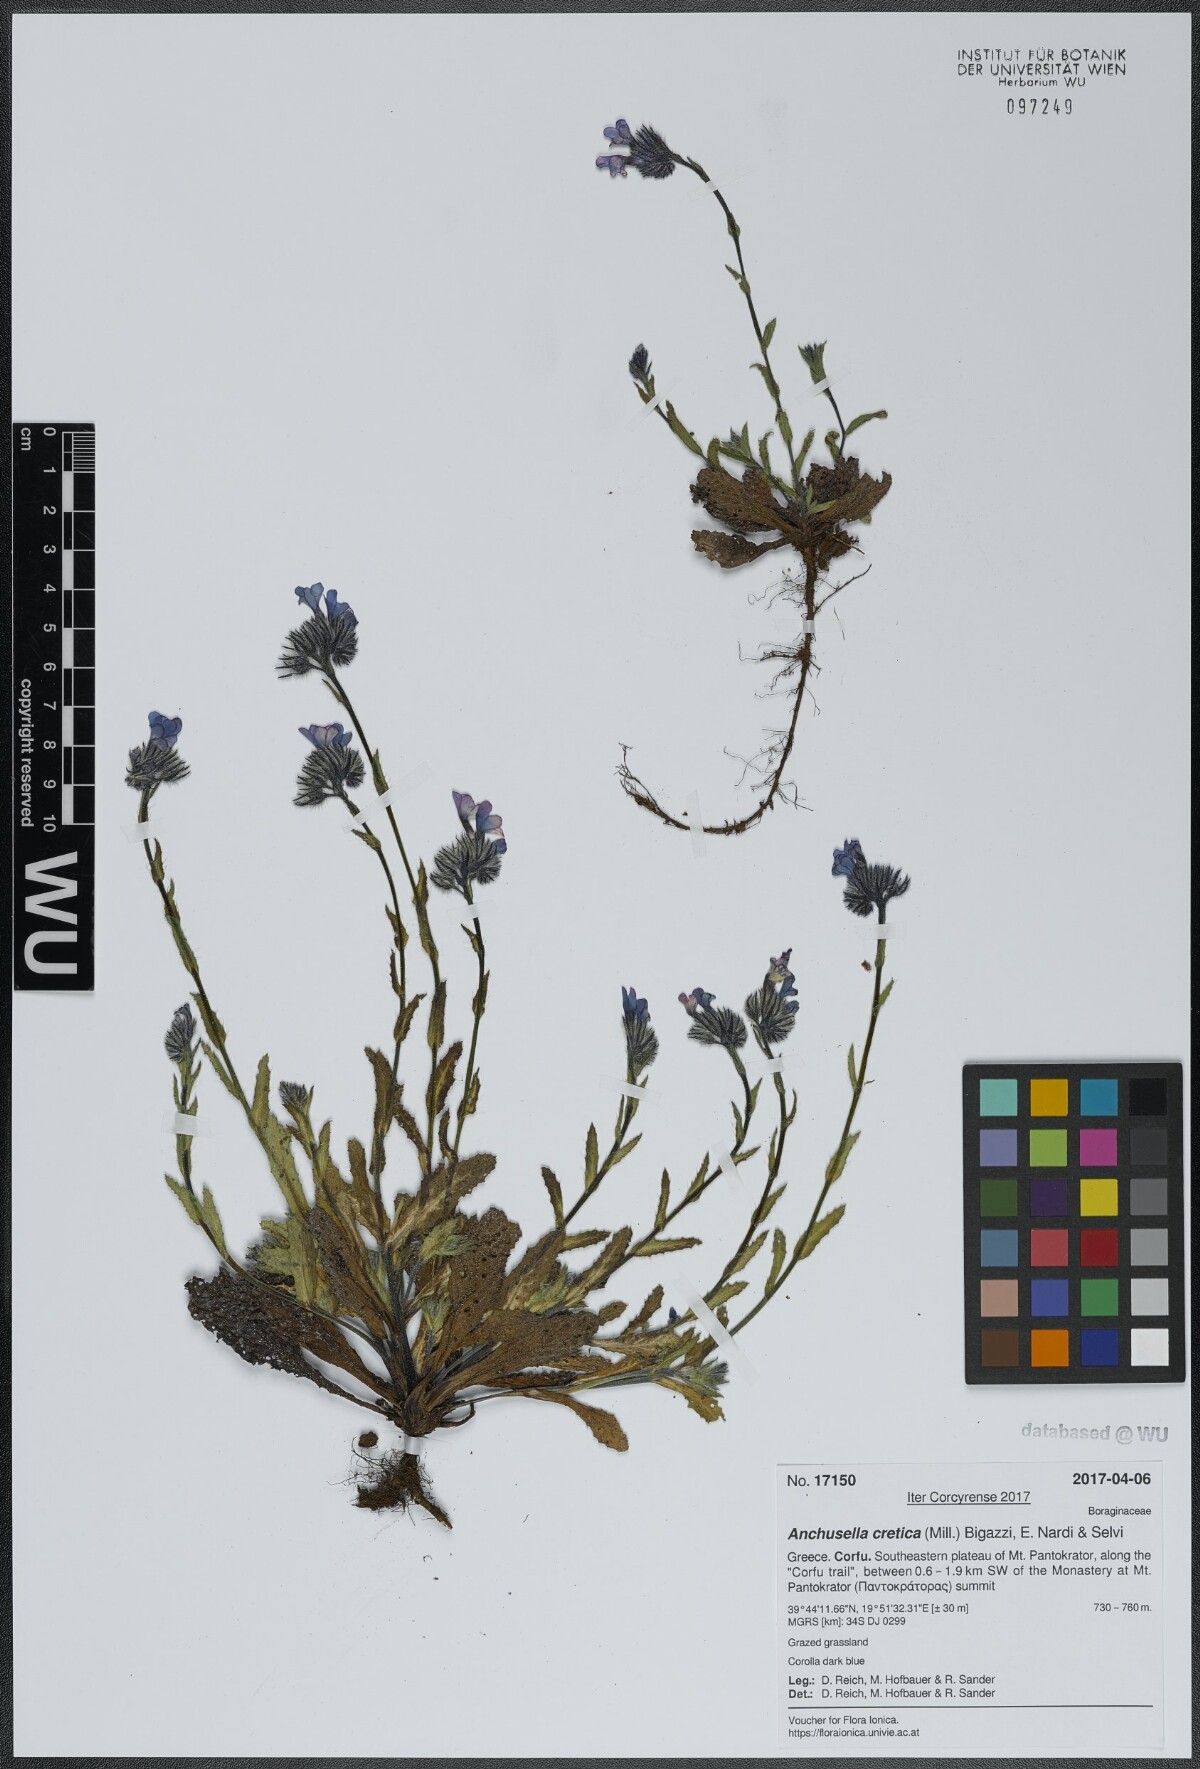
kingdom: Plantae
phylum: Tracheophyta
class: Magnoliopsida
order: Boraginales
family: Boraginaceae
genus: Anchusella
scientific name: Anchusella cretica
